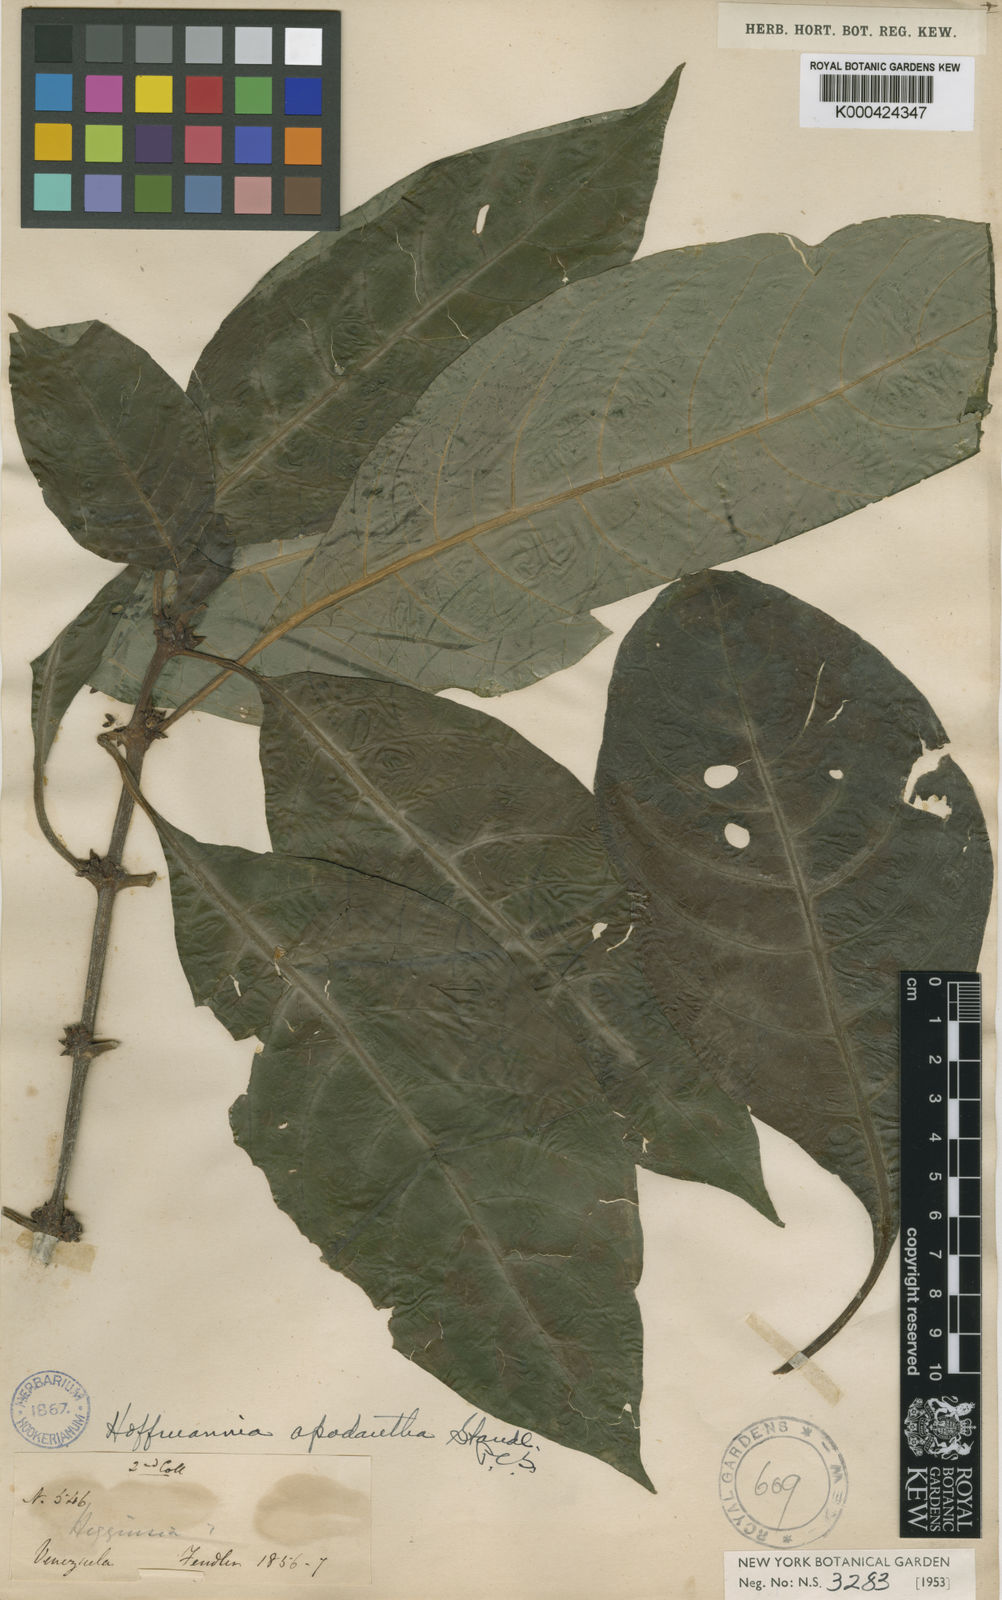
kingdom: Plantae
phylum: Tracheophyta
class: Magnoliopsida
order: Gentianales
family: Rubiaceae
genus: Hoffmannia
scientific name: Hoffmannia apodantha
